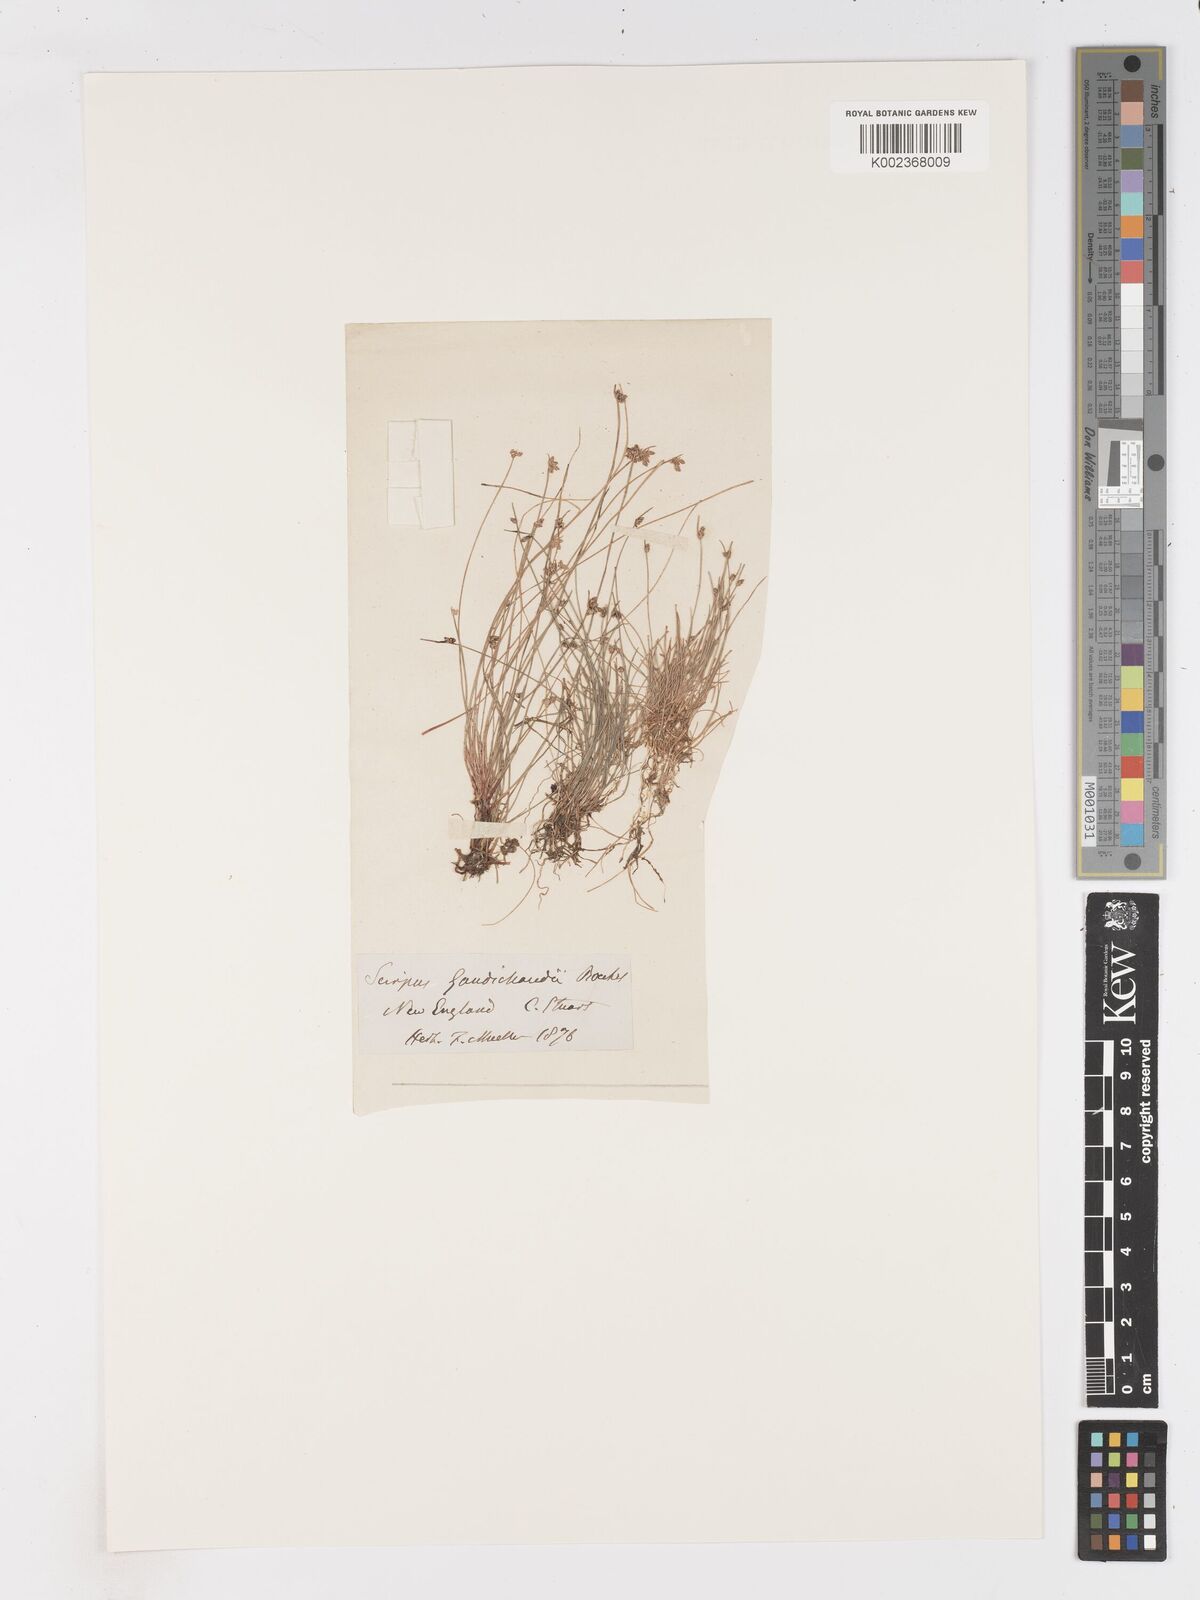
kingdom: Plantae
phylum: Tracheophyta
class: Liliopsida
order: Poales
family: Cyperaceae
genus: Isolepis
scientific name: Isolepis inundata
